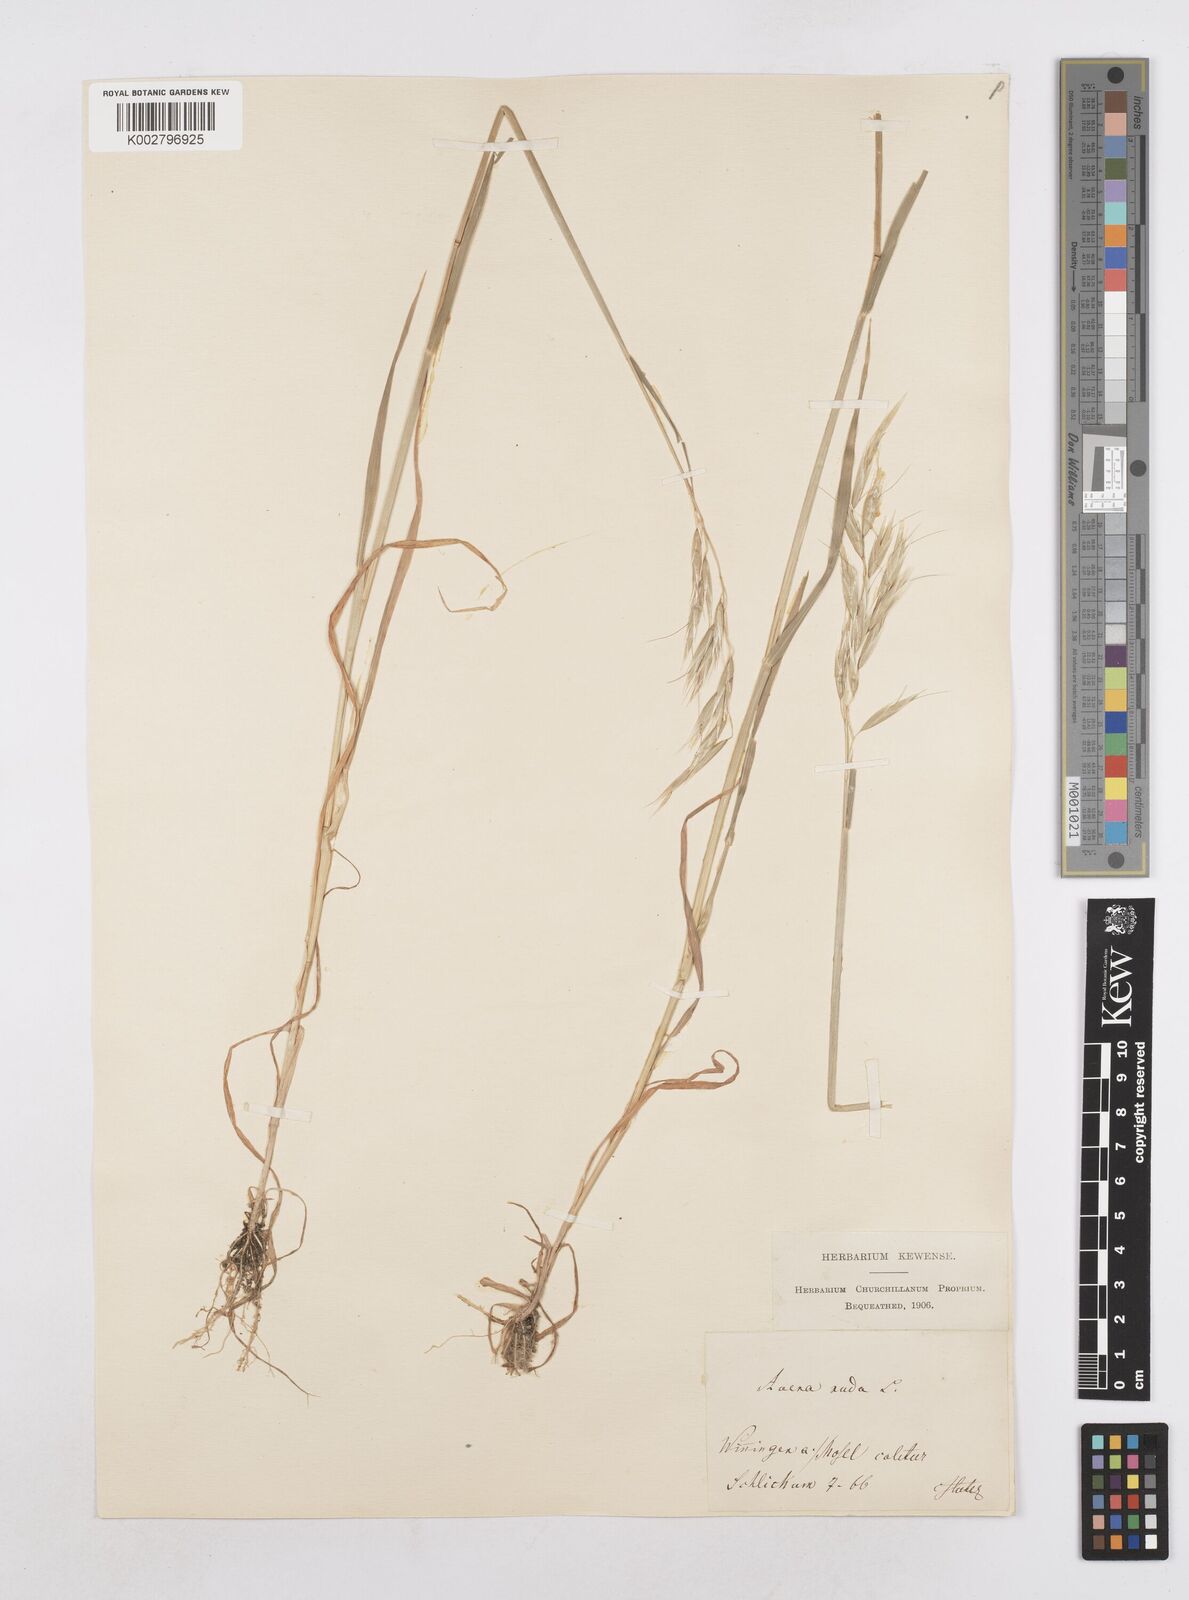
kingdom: Plantae
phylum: Tracheophyta
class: Liliopsida
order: Poales
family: Poaceae
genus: Avena
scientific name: Avena nuda
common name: Naked oat
